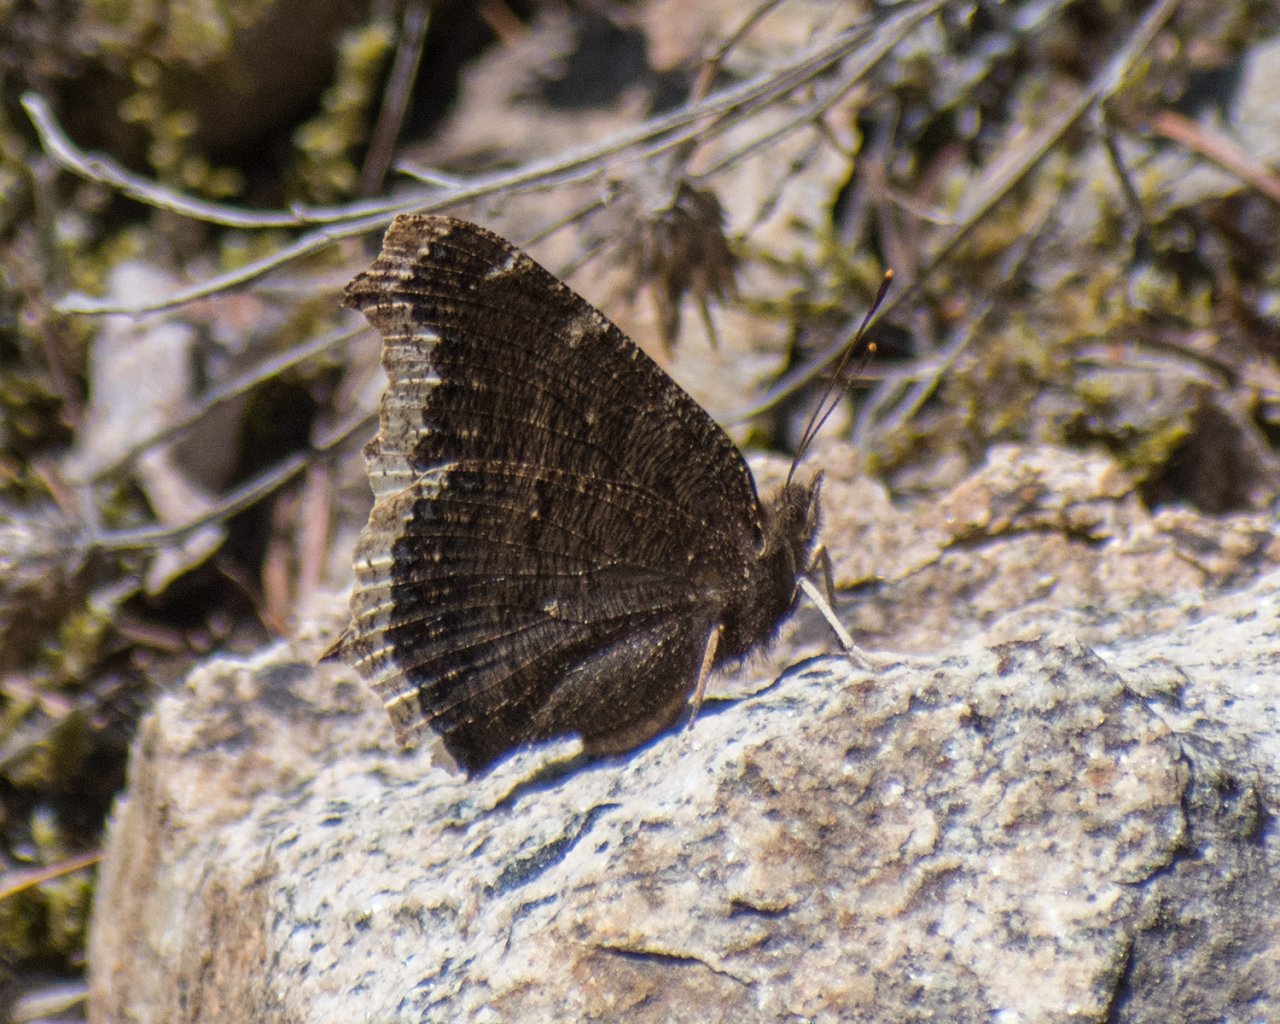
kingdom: Animalia
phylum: Arthropoda
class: Insecta
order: Lepidoptera
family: Nymphalidae
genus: Nymphalis
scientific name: Nymphalis antiopa
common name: Mourning Cloak
